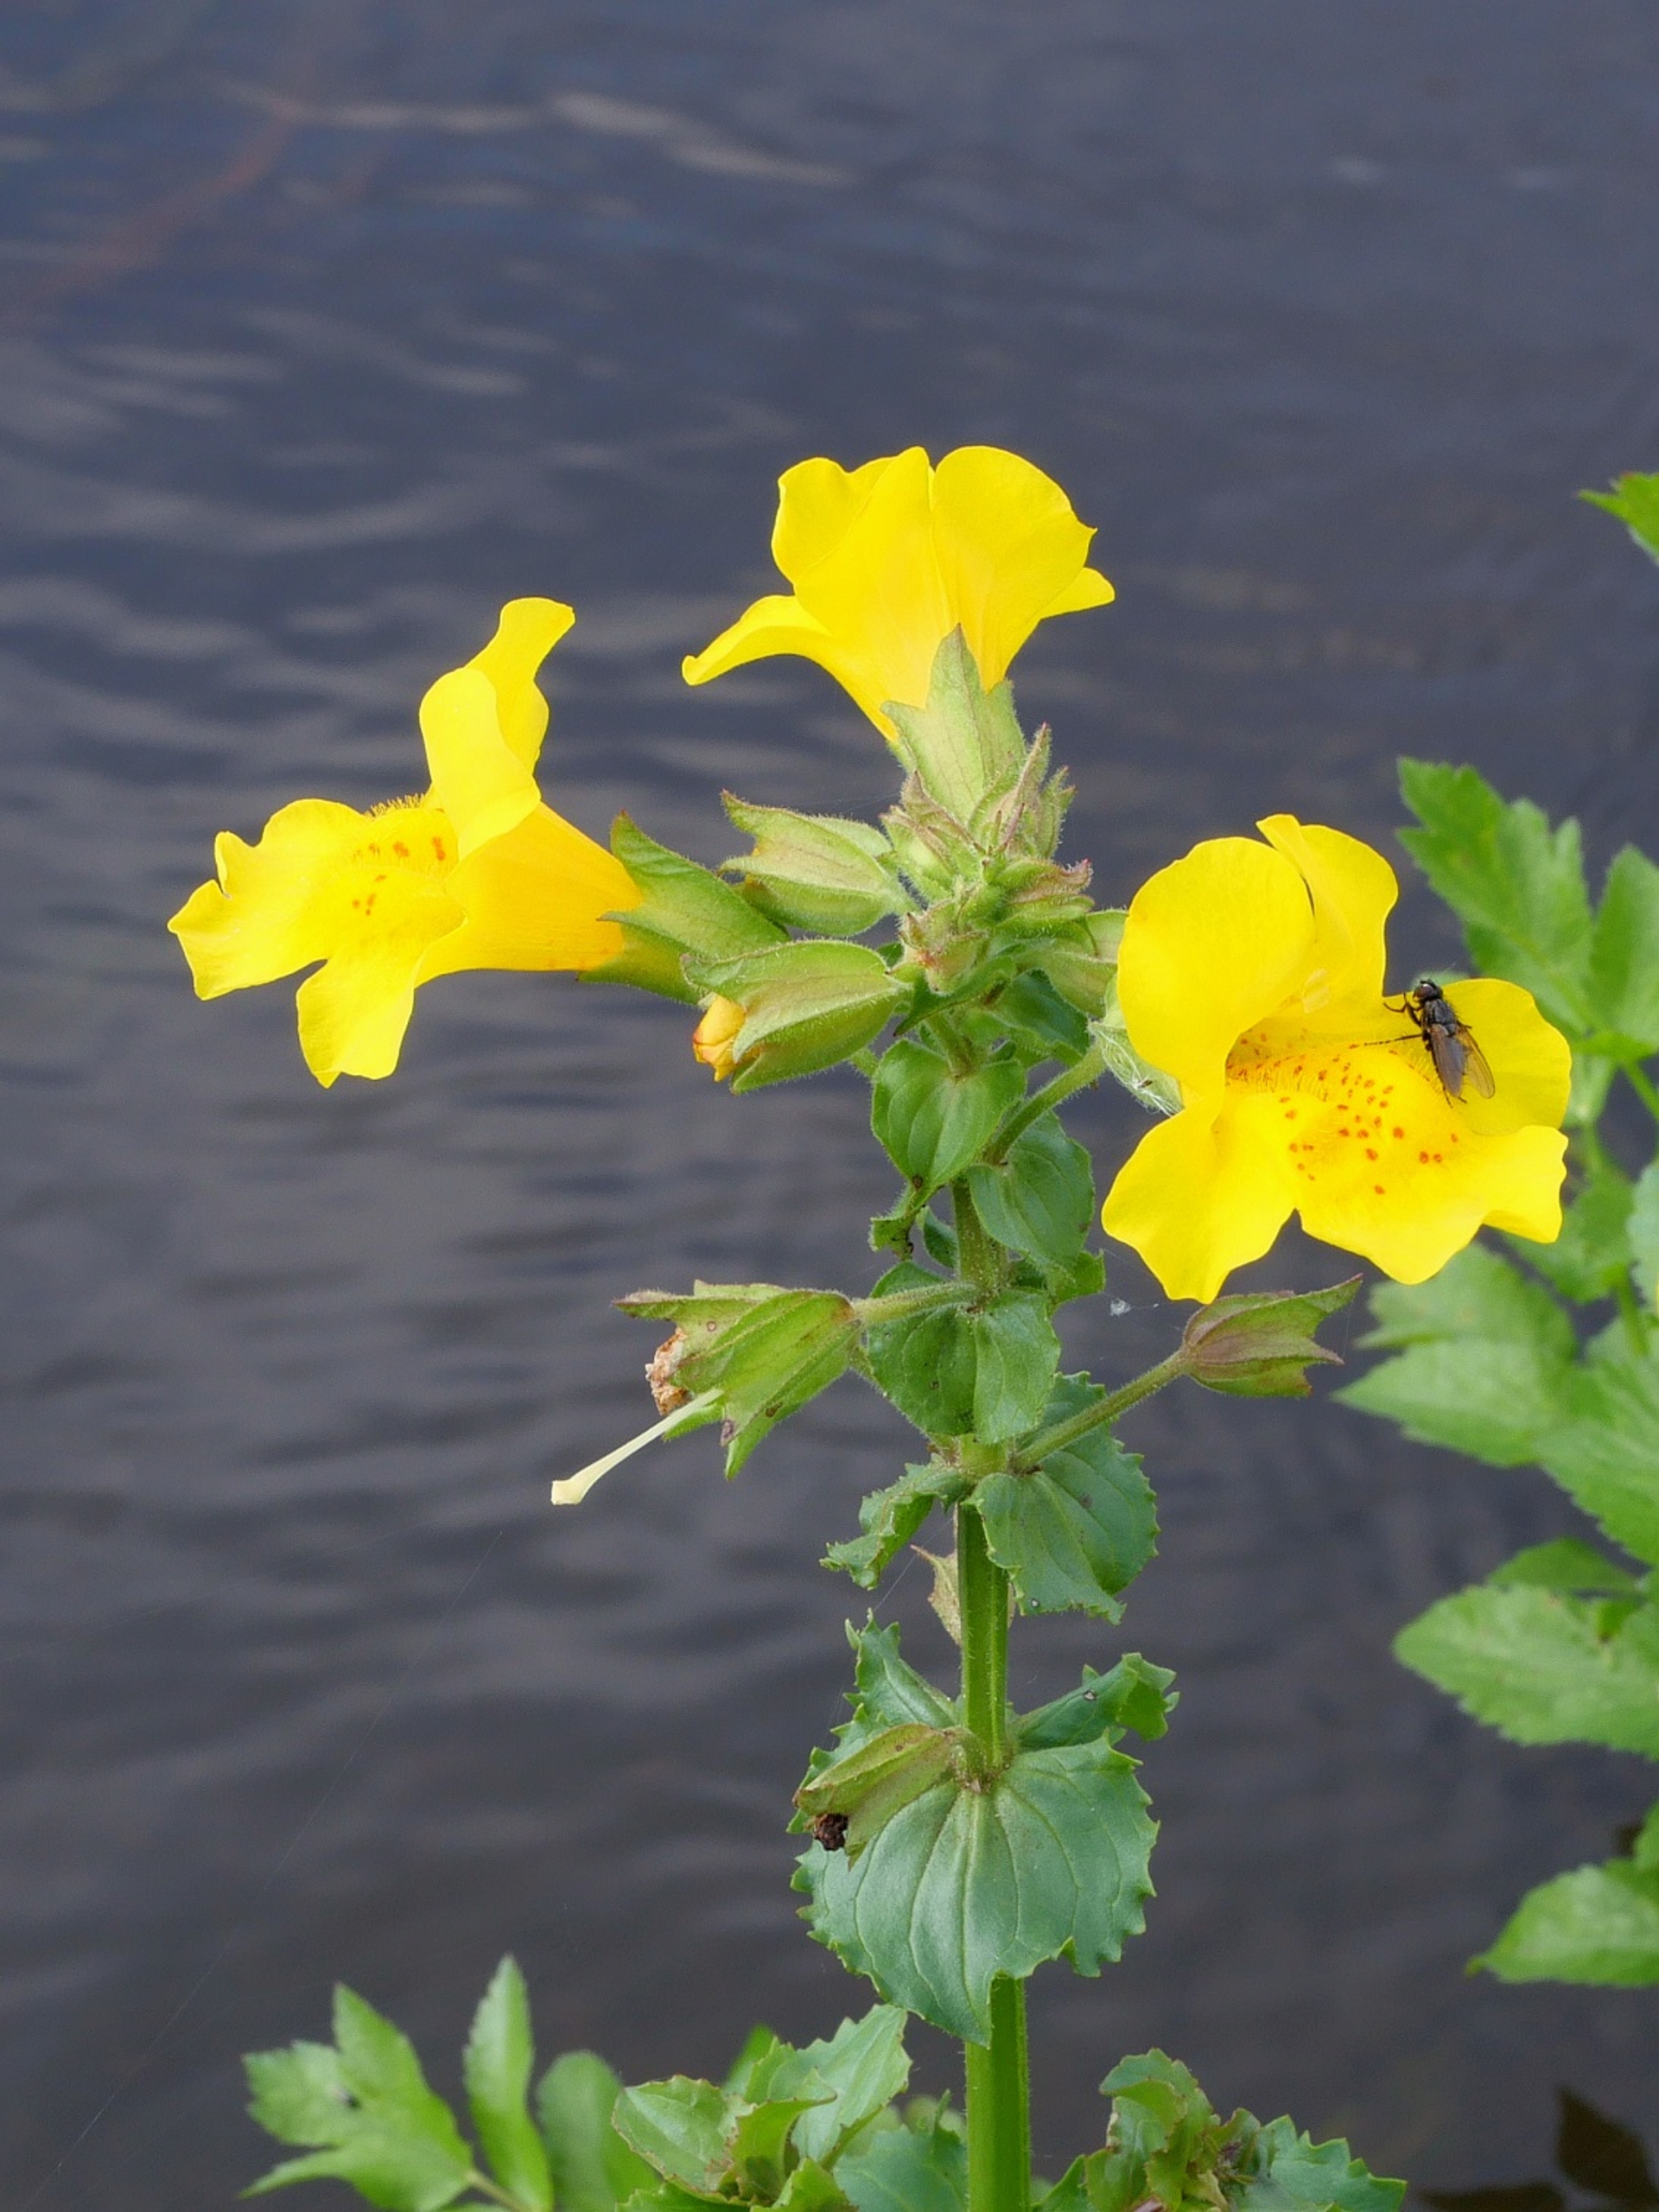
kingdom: Plantae
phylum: Tracheophyta
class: Magnoliopsida
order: Lamiales
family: Phrymaceae
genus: Erythranthe
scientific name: Erythranthe guttata
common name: Abeblomst
